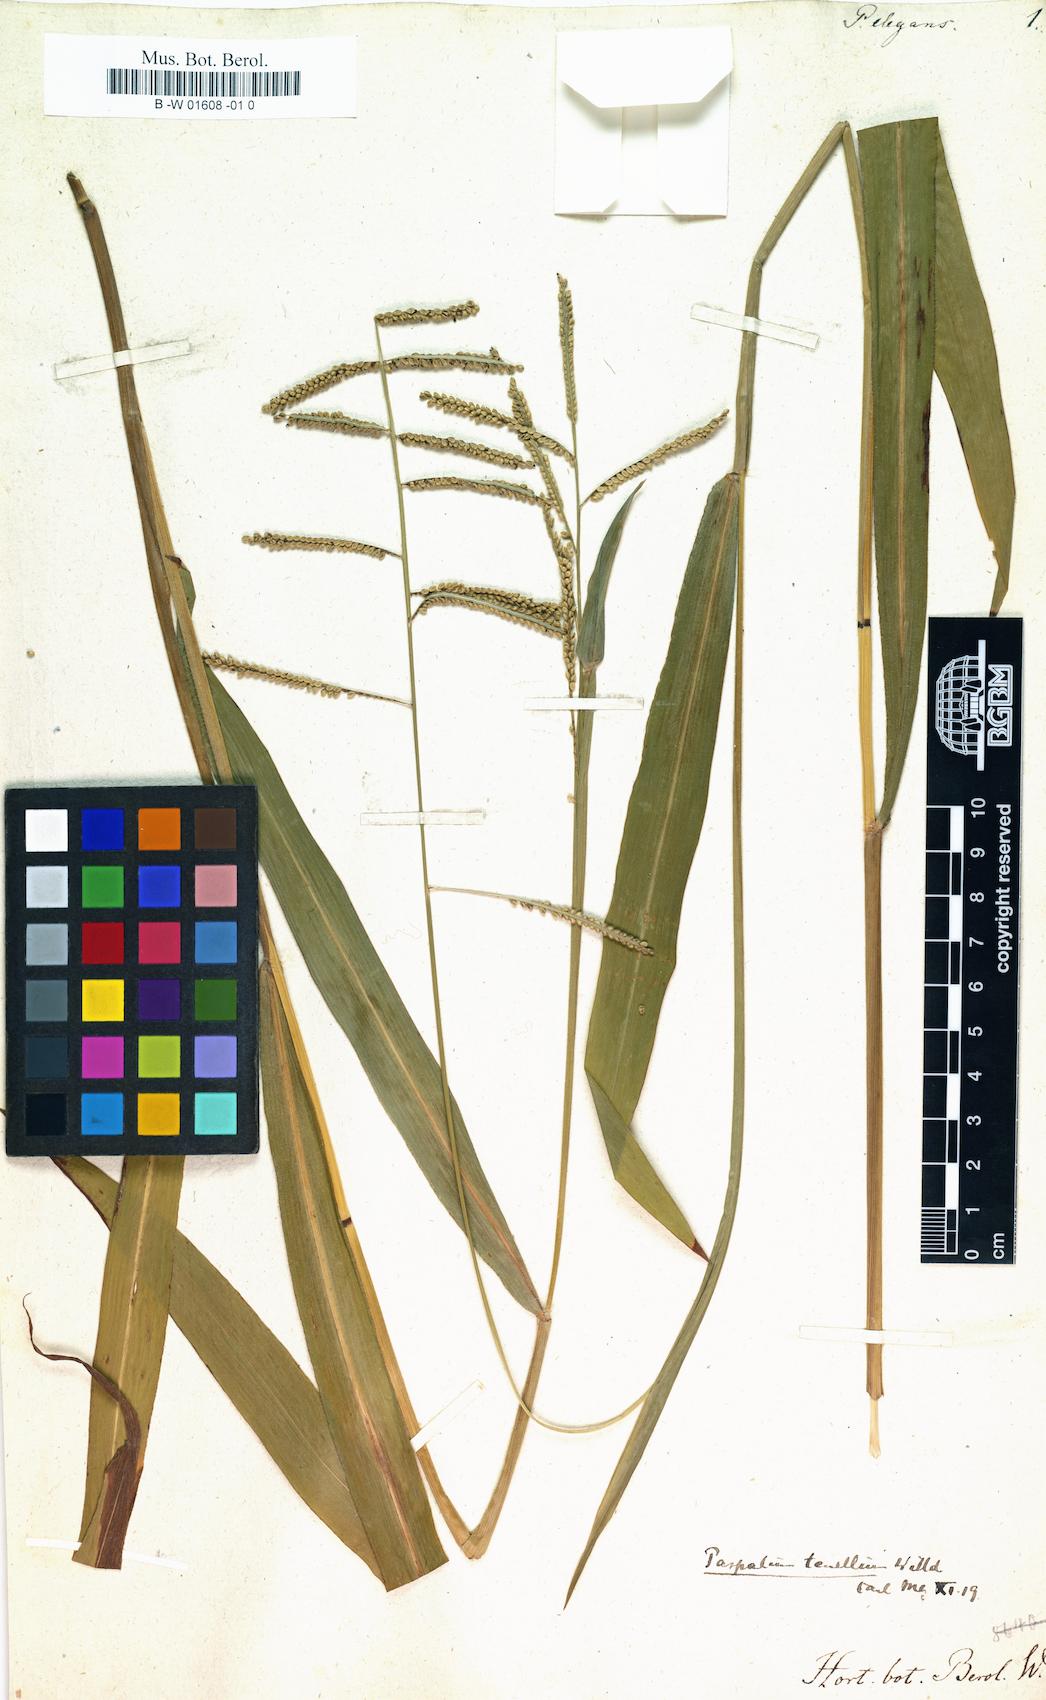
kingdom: Plantae
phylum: Tracheophyta
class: Liliopsida
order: Poales
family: Poaceae
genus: Paspalum
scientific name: Paspalum
